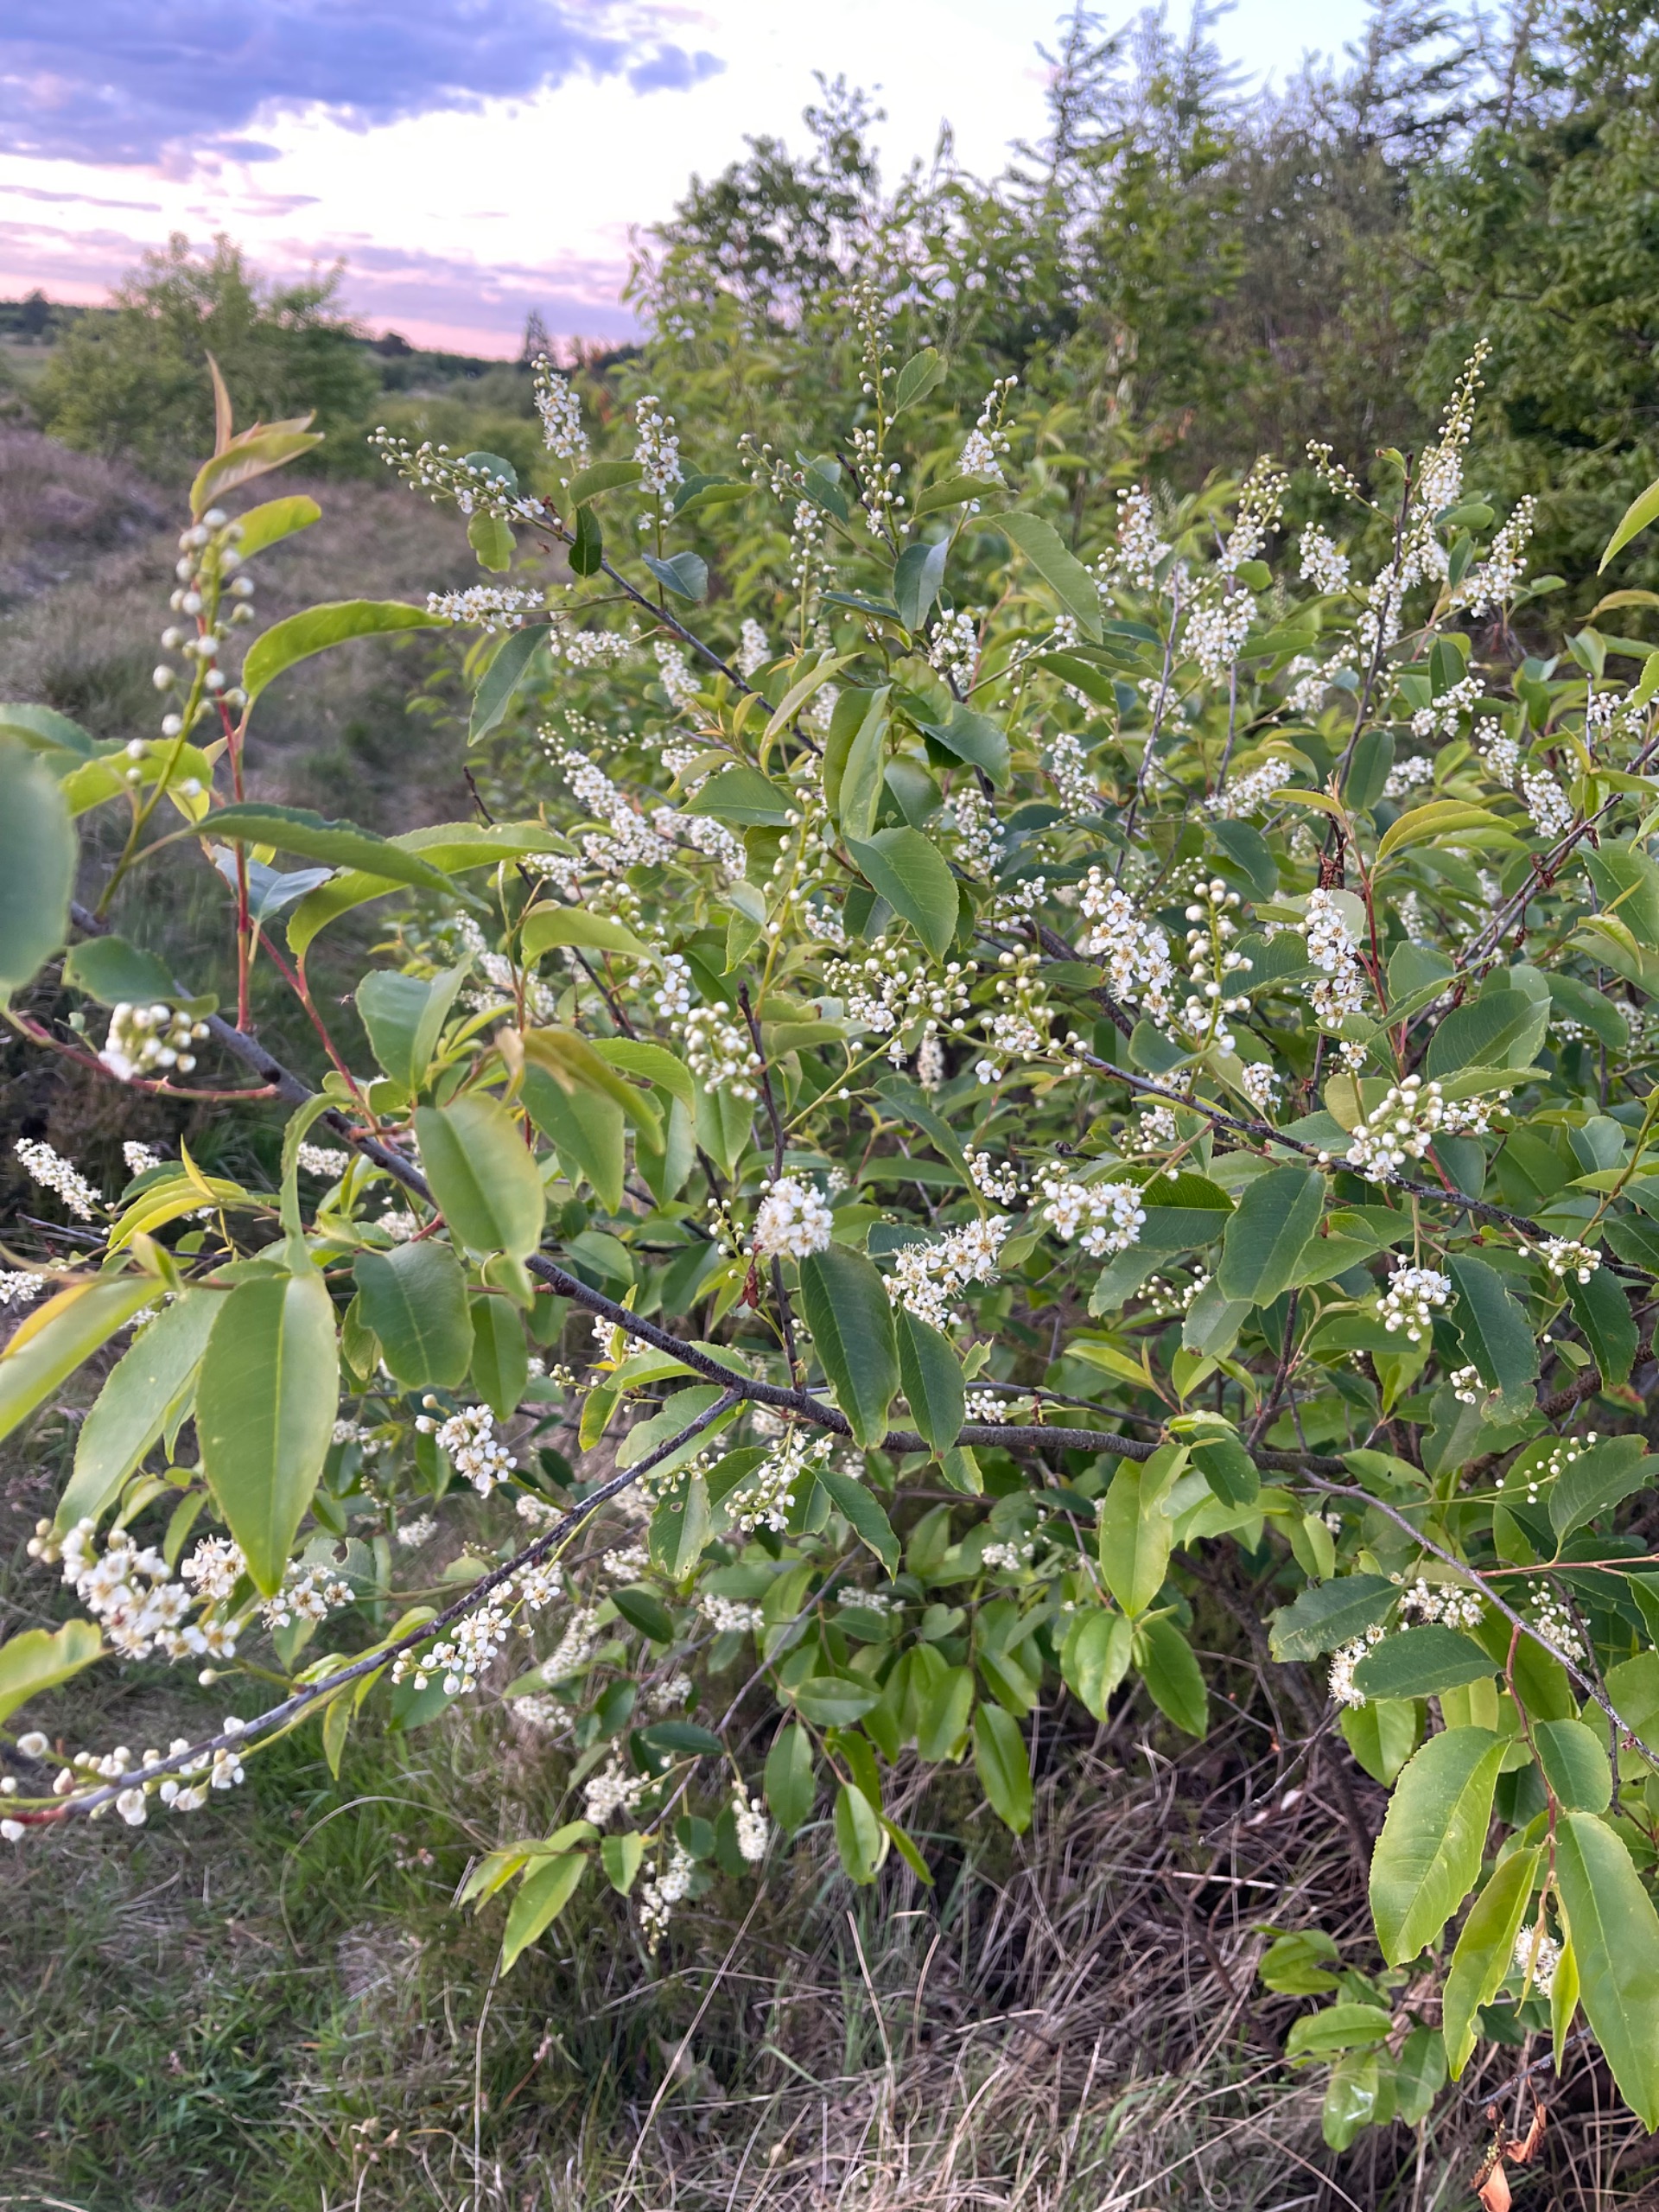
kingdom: Plantae
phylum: Tracheophyta
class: Magnoliopsida
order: Rosales
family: Rosaceae
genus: Prunus
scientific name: Prunus serotina
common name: Glansbladet hæg
